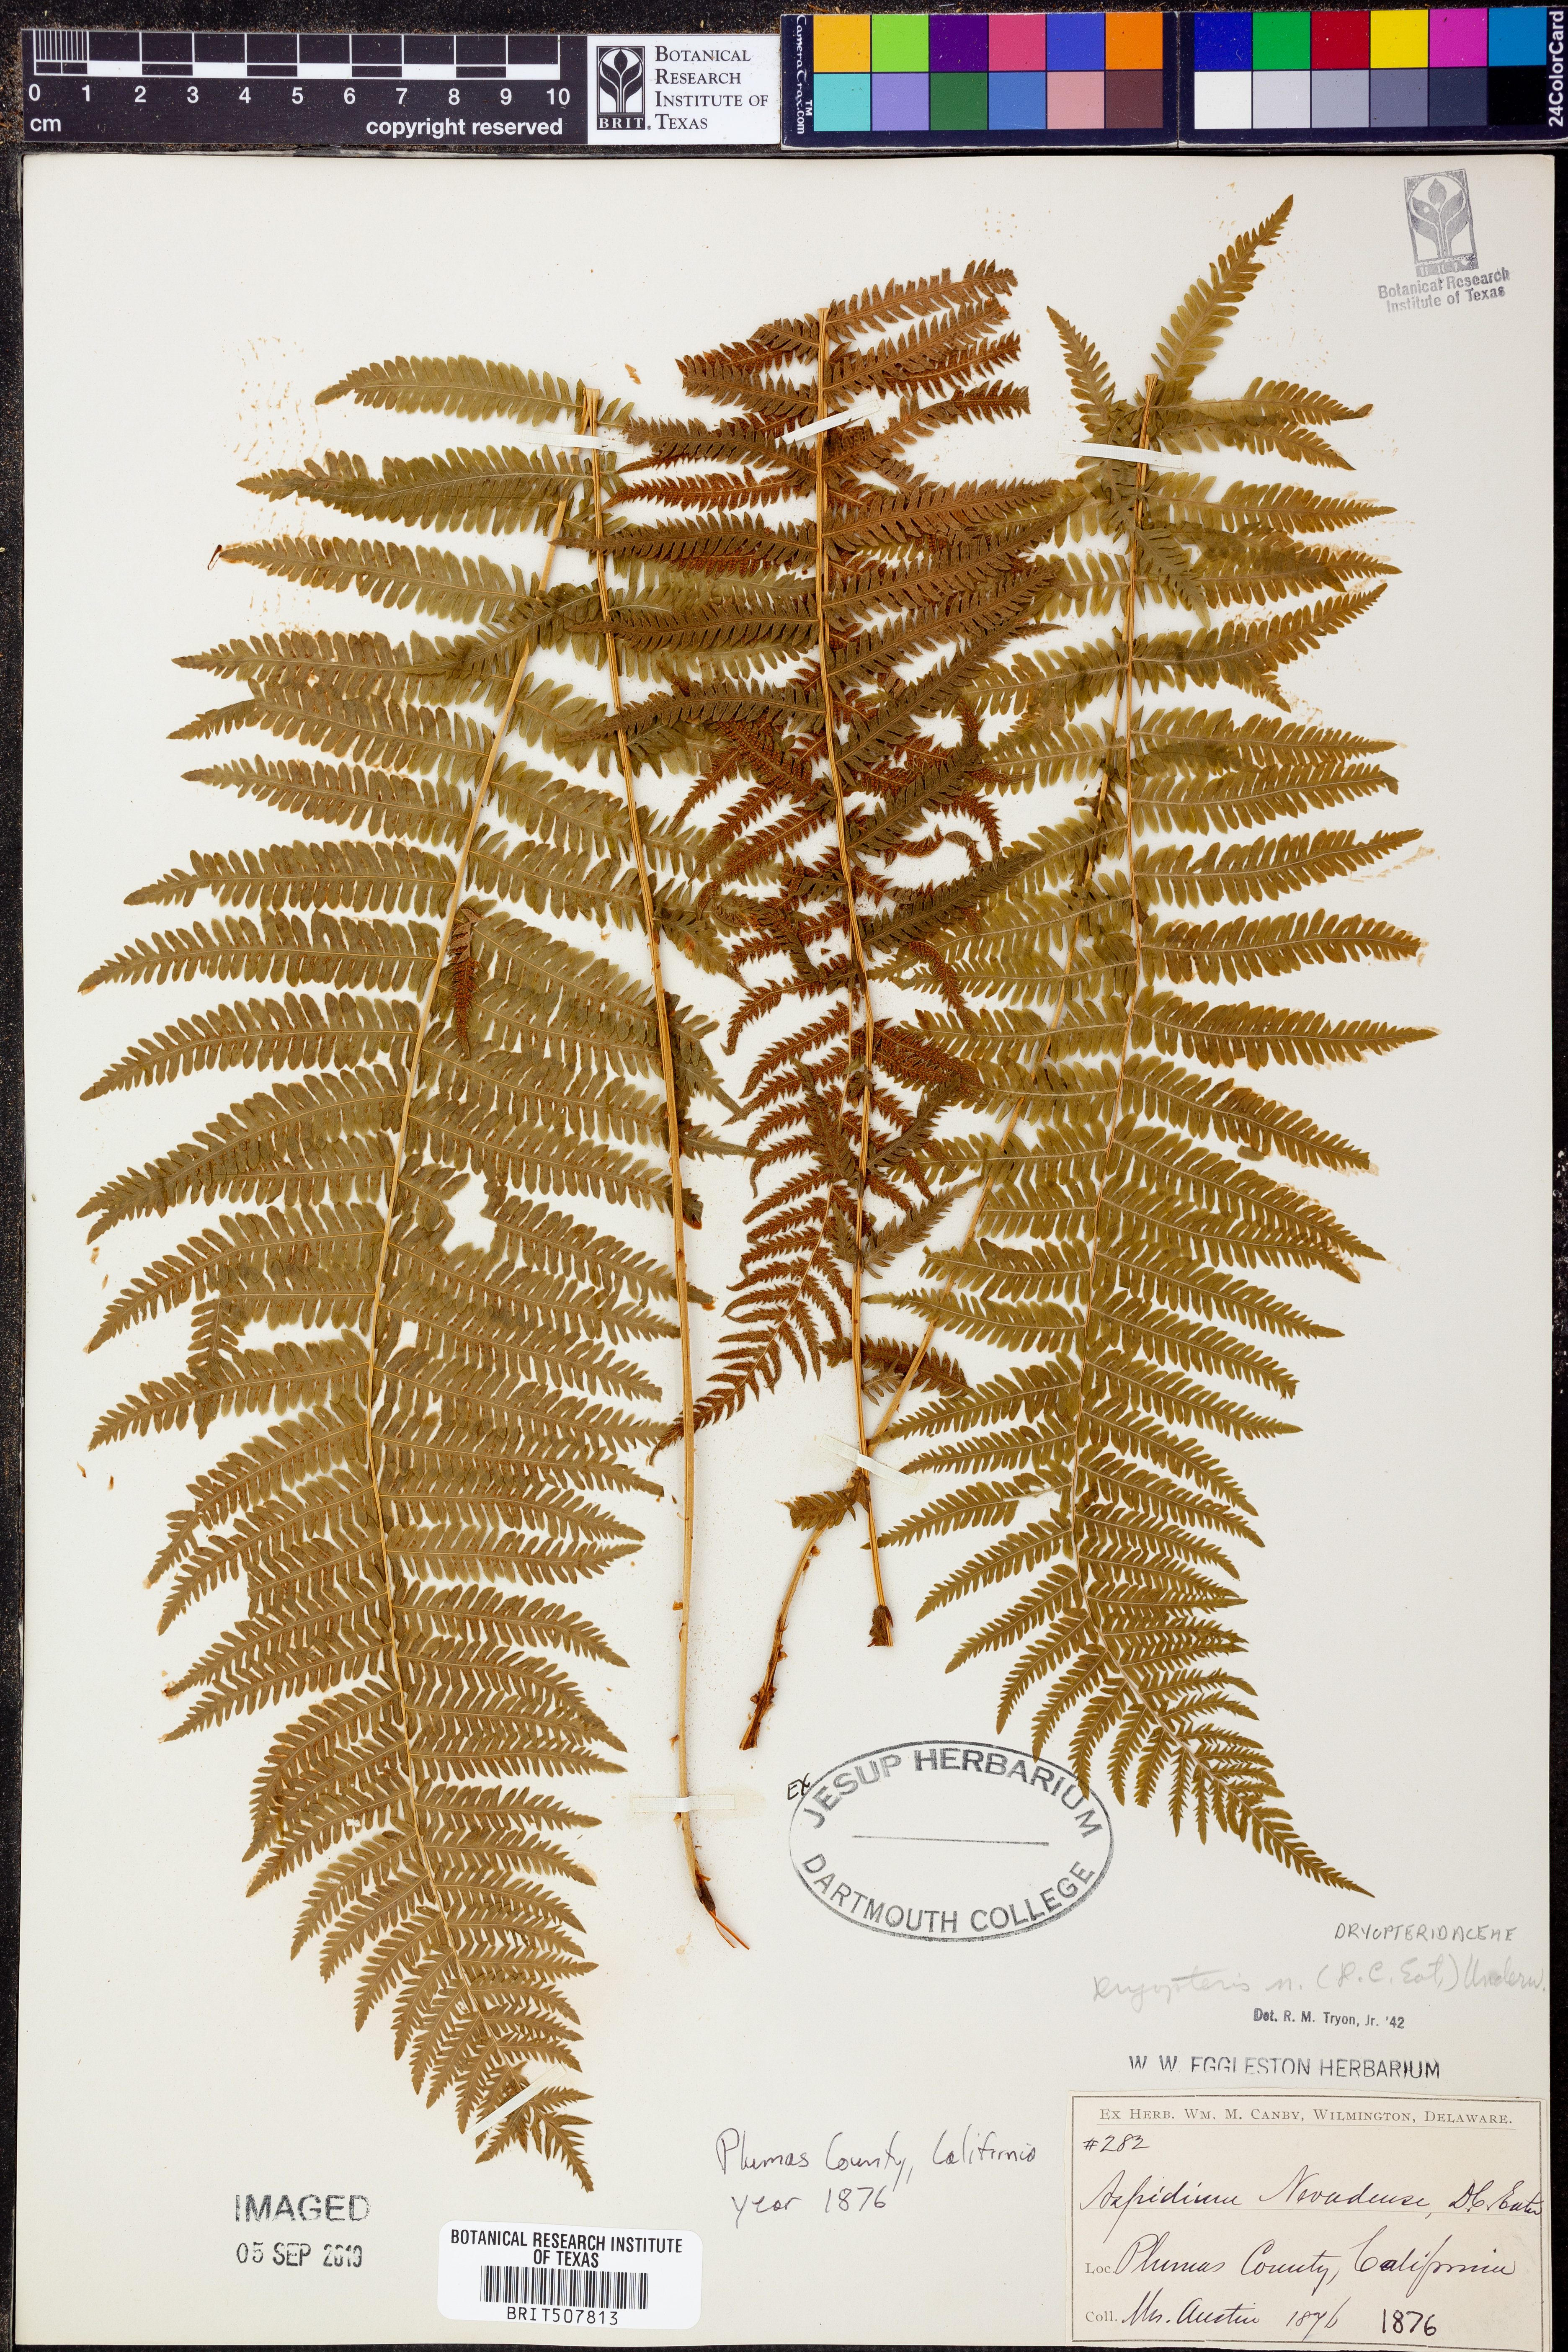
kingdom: Plantae
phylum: Tracheophyta
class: Polypodiopsida
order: Polypodiales
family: Dryopteridaceae
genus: Dryopteris
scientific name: Dryopteris nevadense
